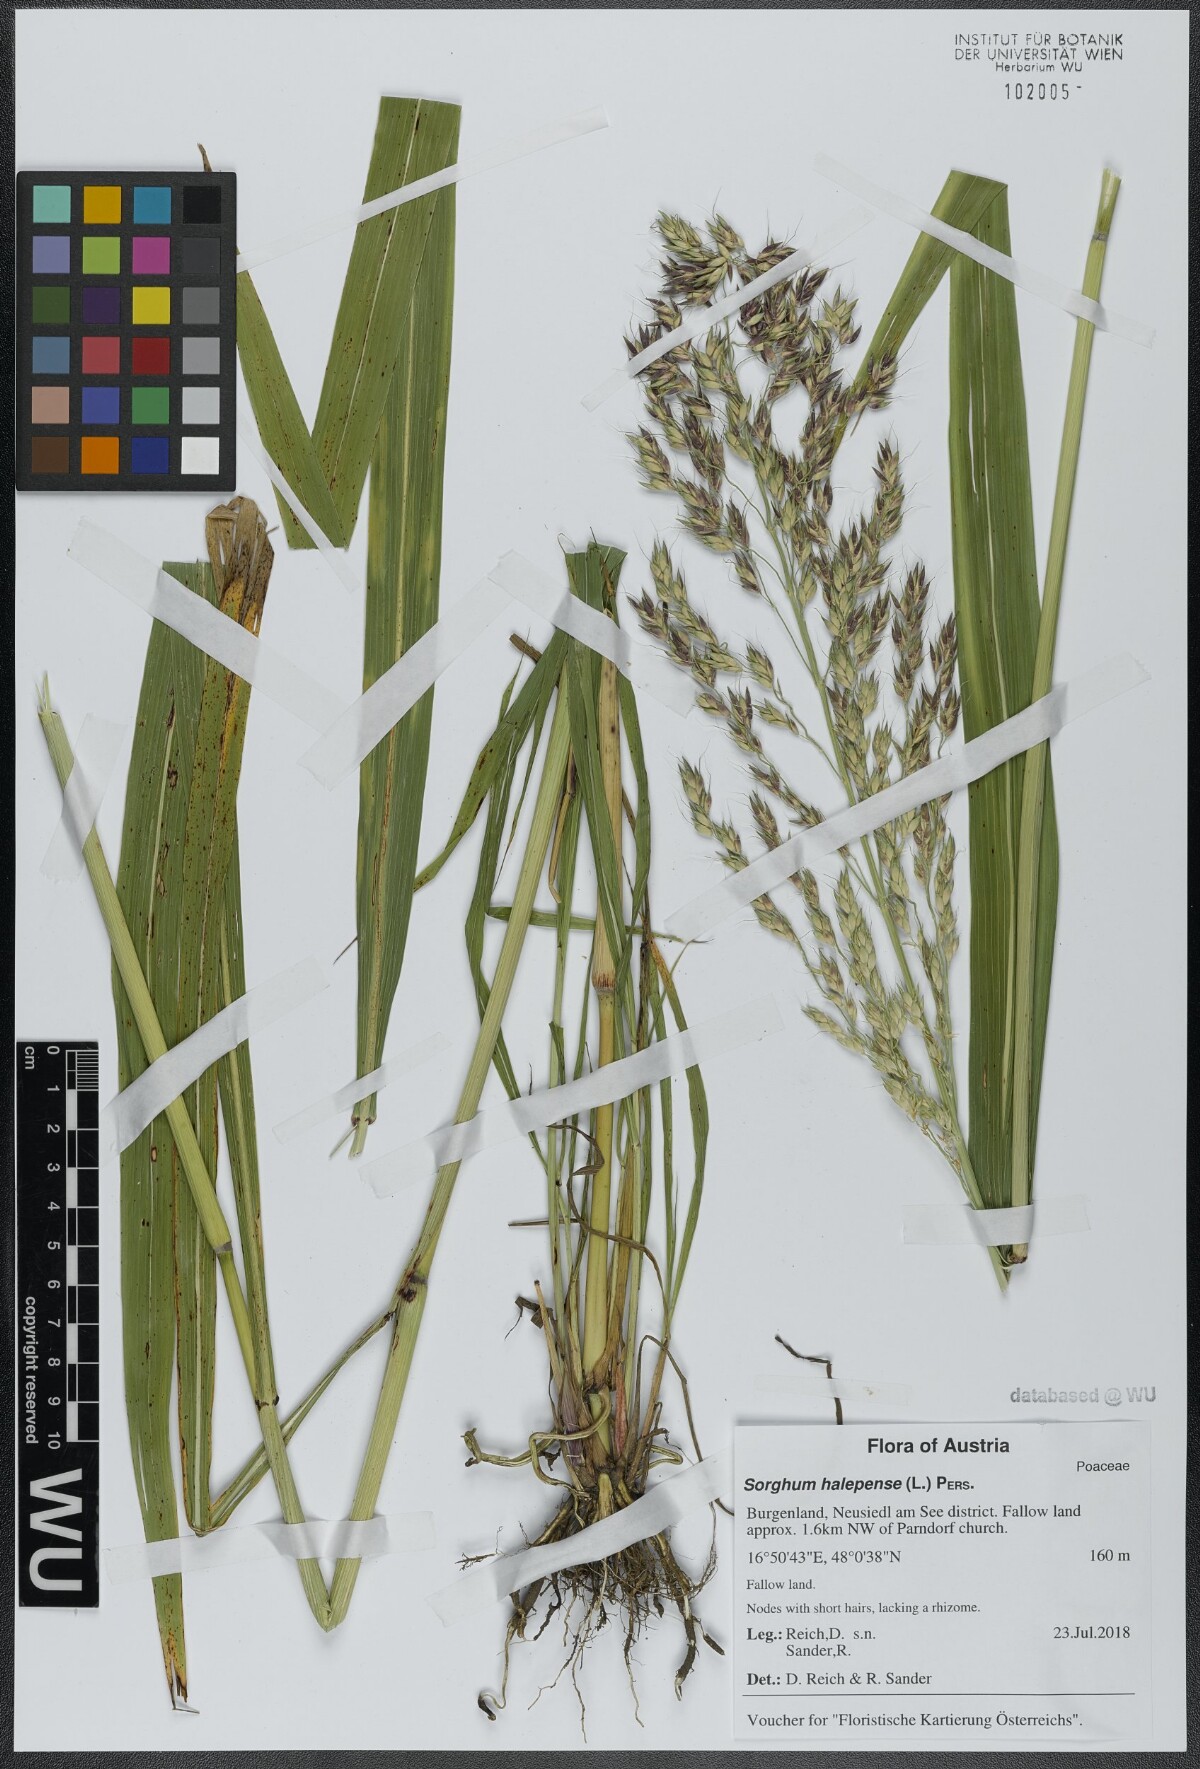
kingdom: Plantae
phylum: Tracheophyta
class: Liliopsida
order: Poales
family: Poaceae
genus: Sorghum
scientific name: Sorghum halepense
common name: Johnson-grass
